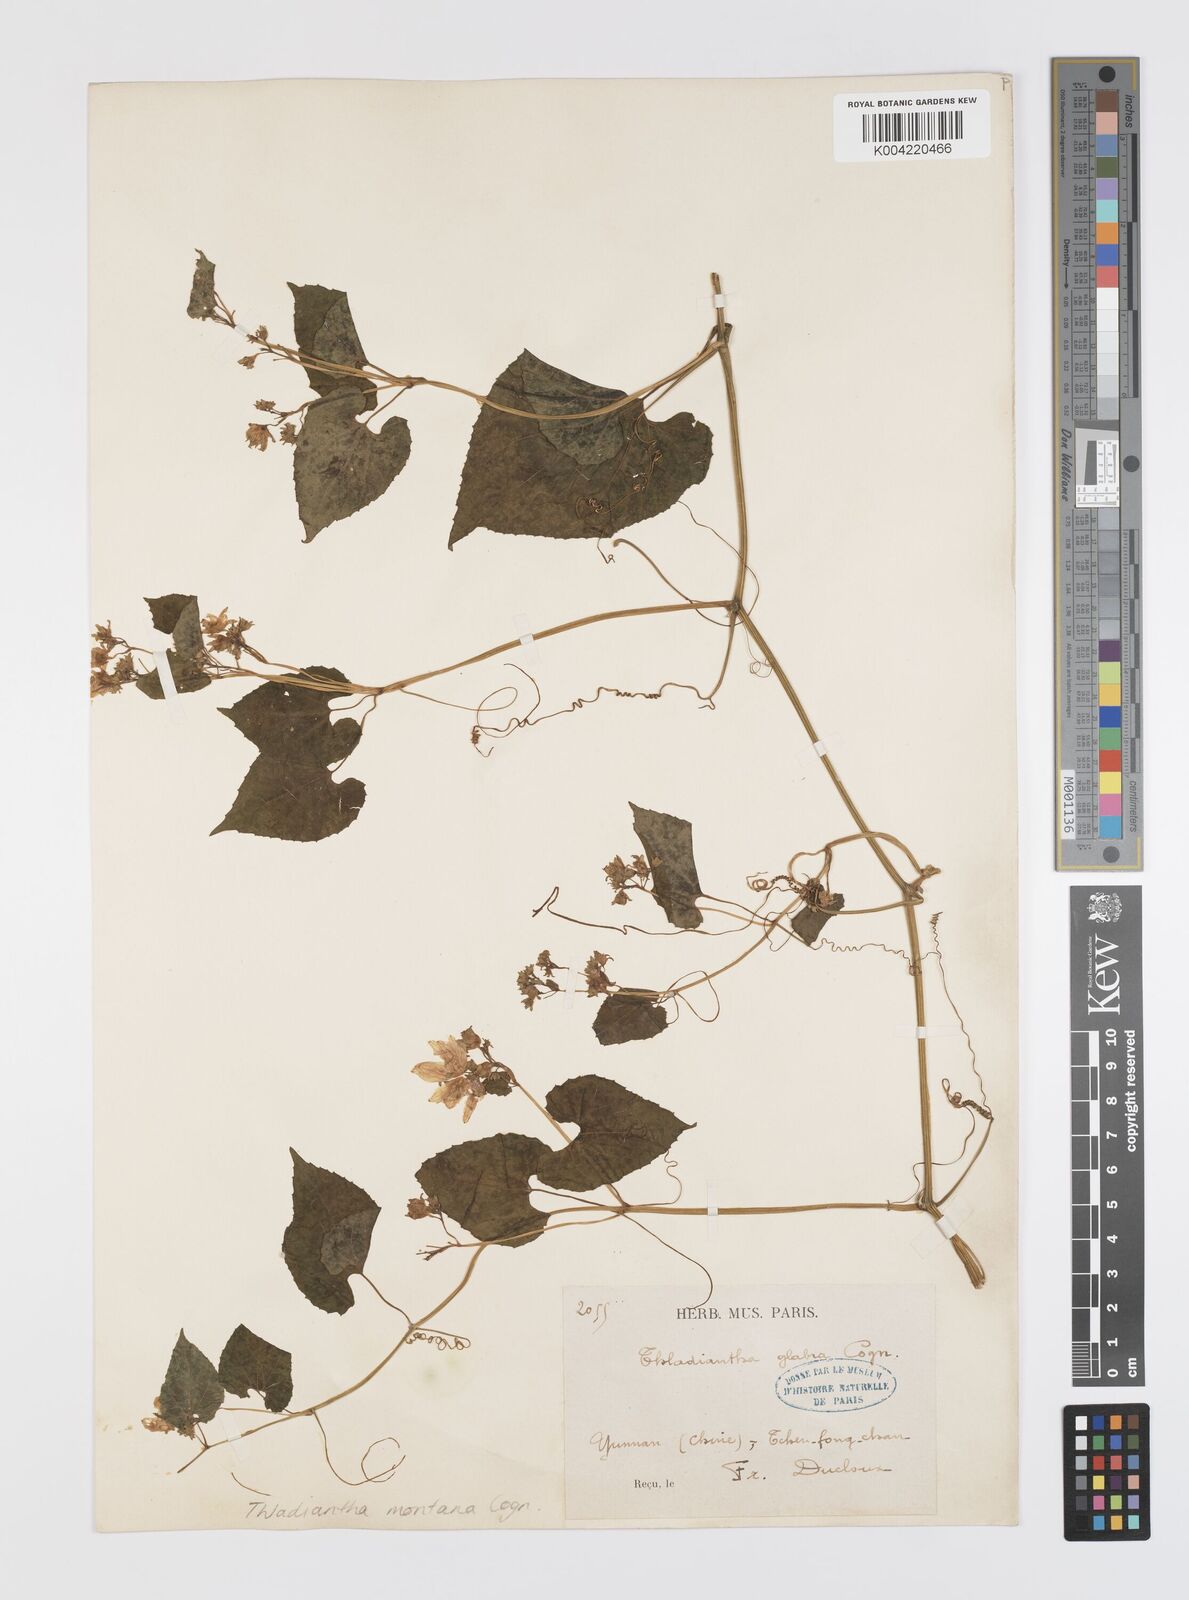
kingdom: Plantae
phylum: Tracheophyta
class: Magnoliopsida
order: Cucurbitales
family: Cucurbitaceae
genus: Thladiantha
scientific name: Thladiantha montana
